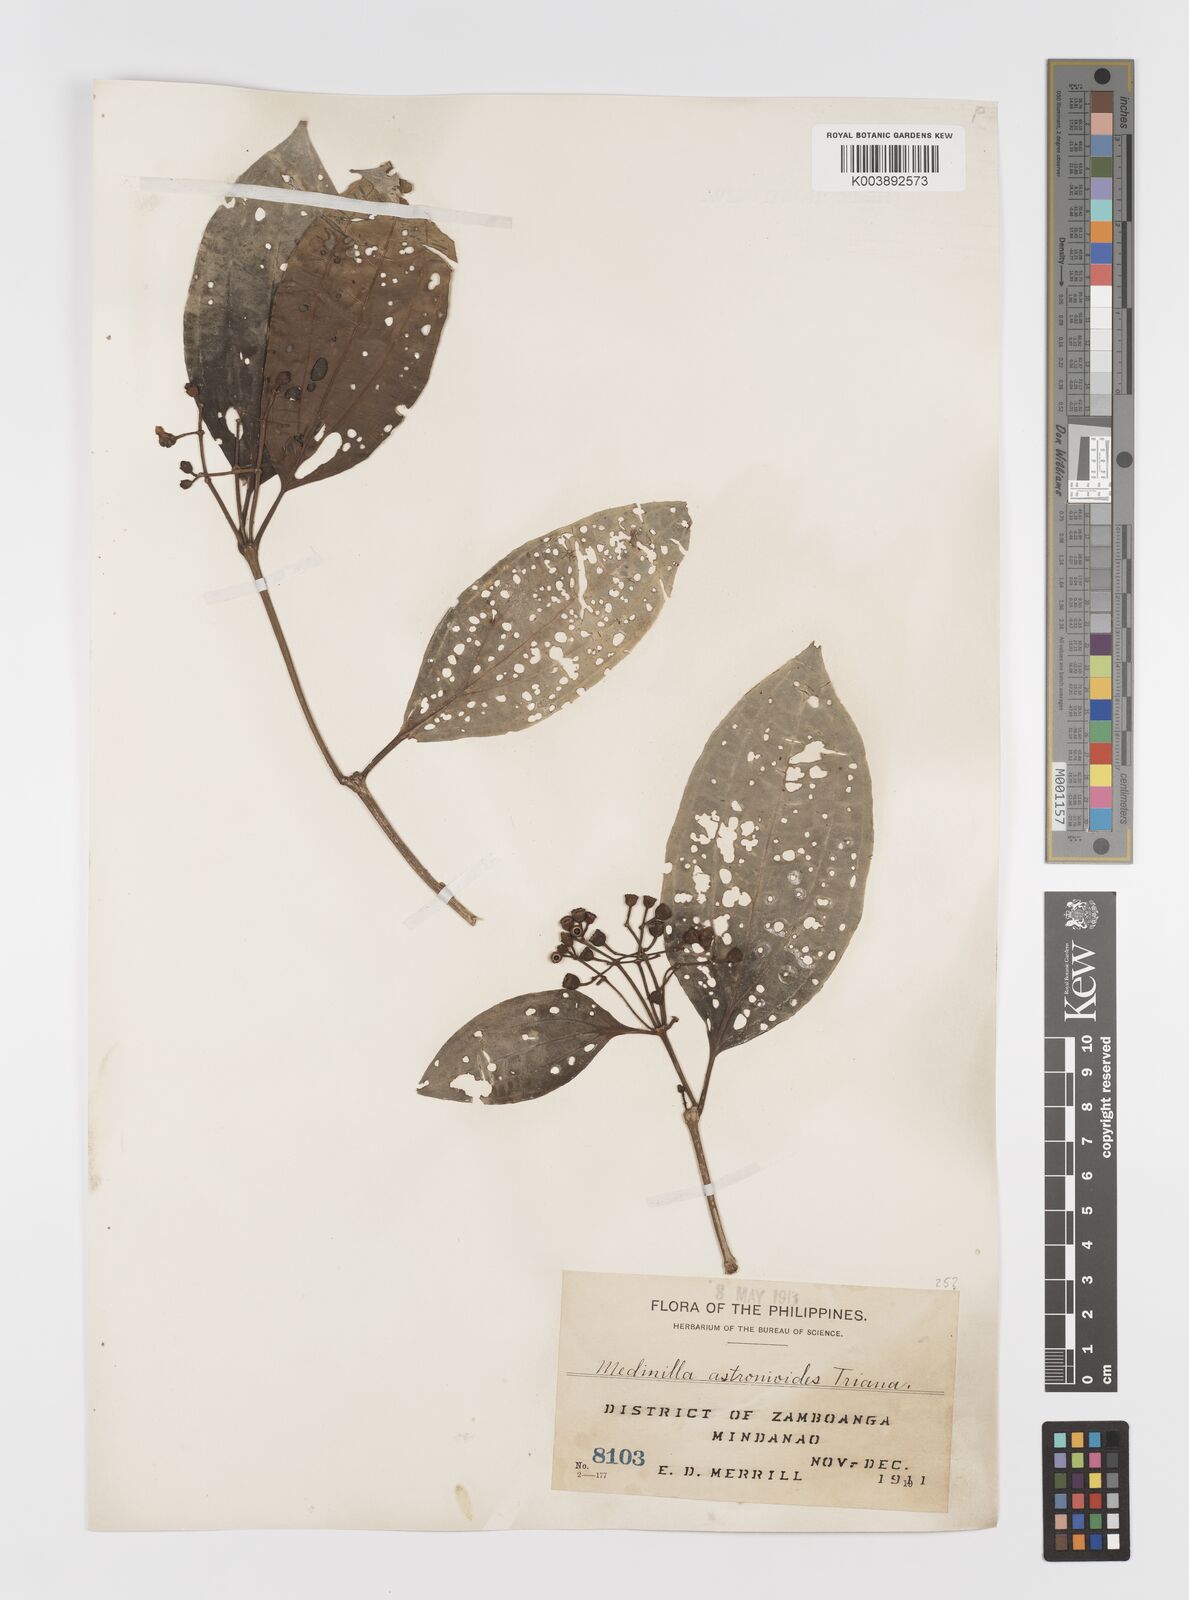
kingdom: Plantae
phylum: Tracheophyta
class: Magnoliopsida
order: Myrtales
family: Melastomataceae
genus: Medinilla
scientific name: Medinilla astronioides
